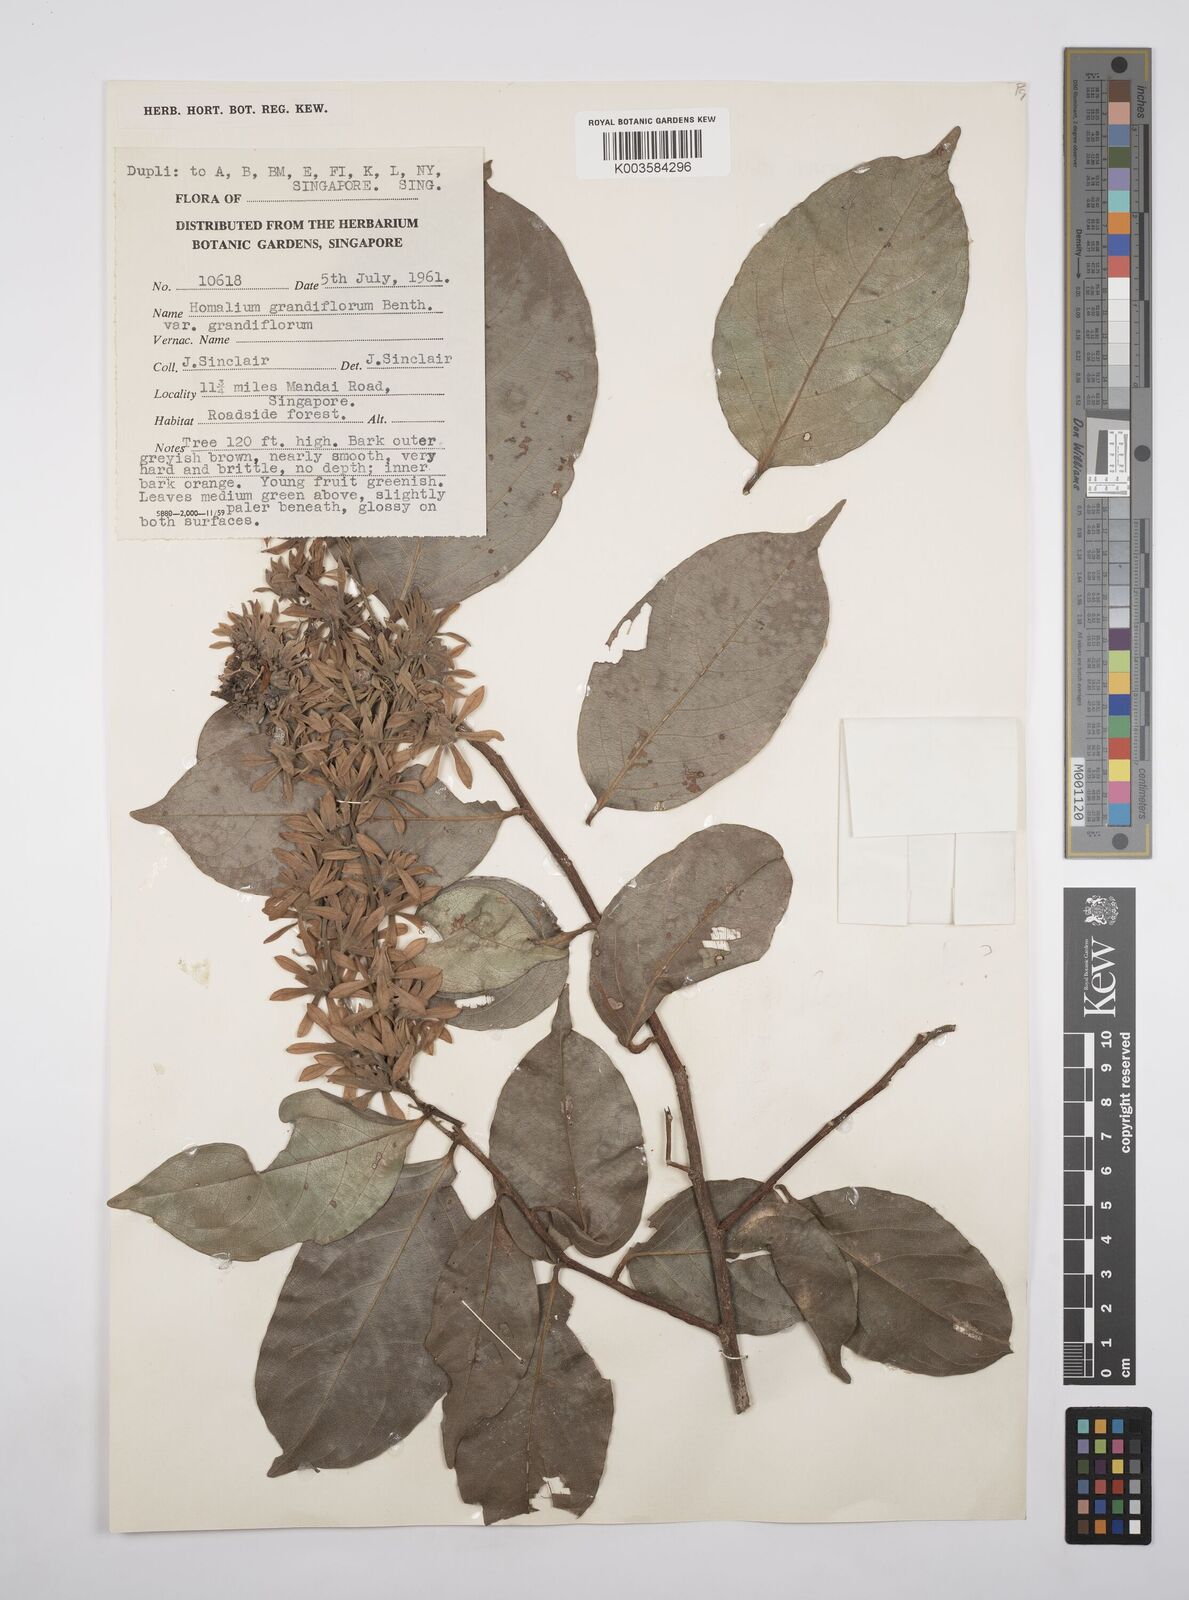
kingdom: Plantae
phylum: Tracheophyta
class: Magnoliopsida
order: Malpighiales
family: Salicaceae
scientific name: Salicaceae
